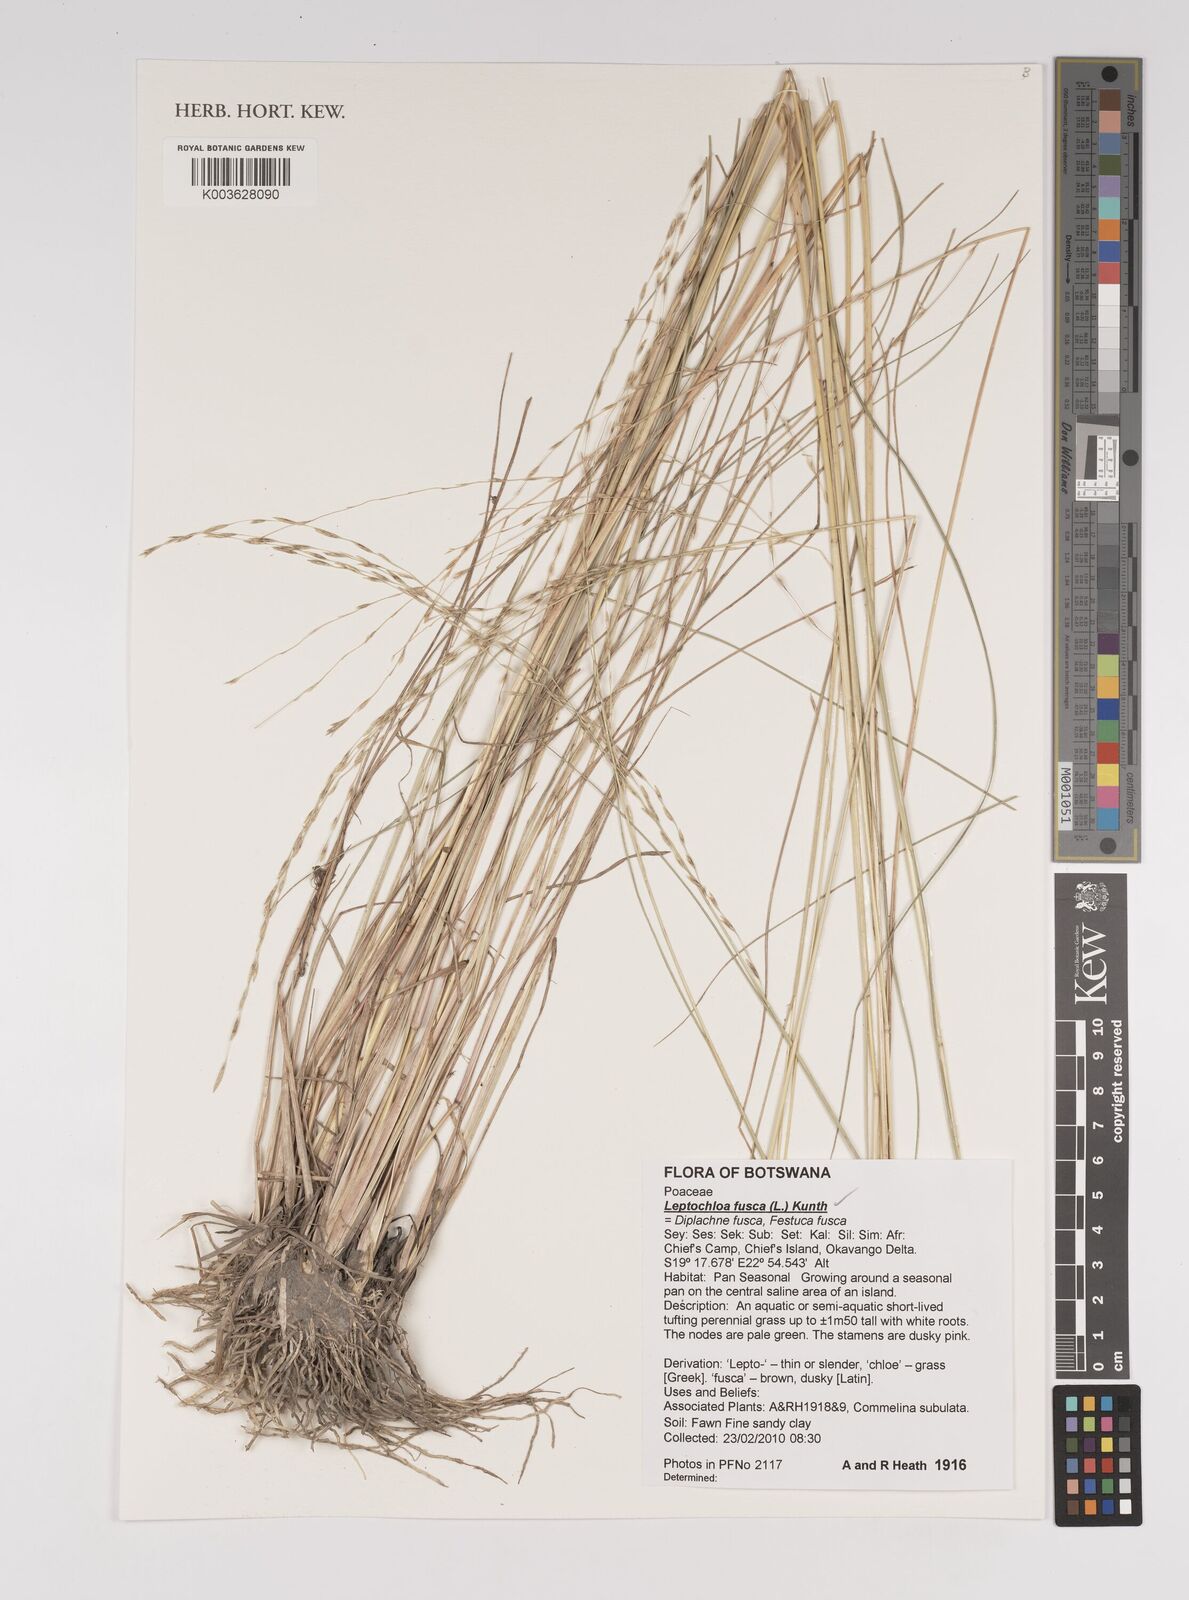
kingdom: Plantae
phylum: Tracheophyta
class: Liliopsida
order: Poales
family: Poaceae
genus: Diplachne
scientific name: Diplachne fusca
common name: Brown beetle grass
